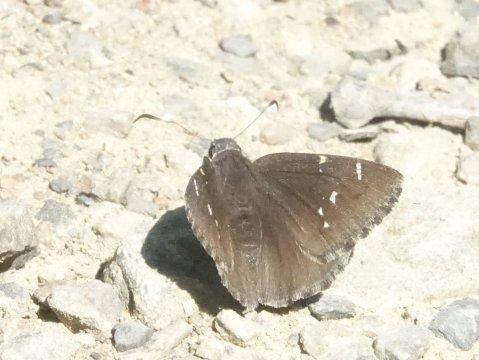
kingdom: Animalia
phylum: Arthropoda
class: Insecta
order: Lepidoptera
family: Hesperiidae
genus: Autochton
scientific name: Autochton
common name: Northern Cloudywing
